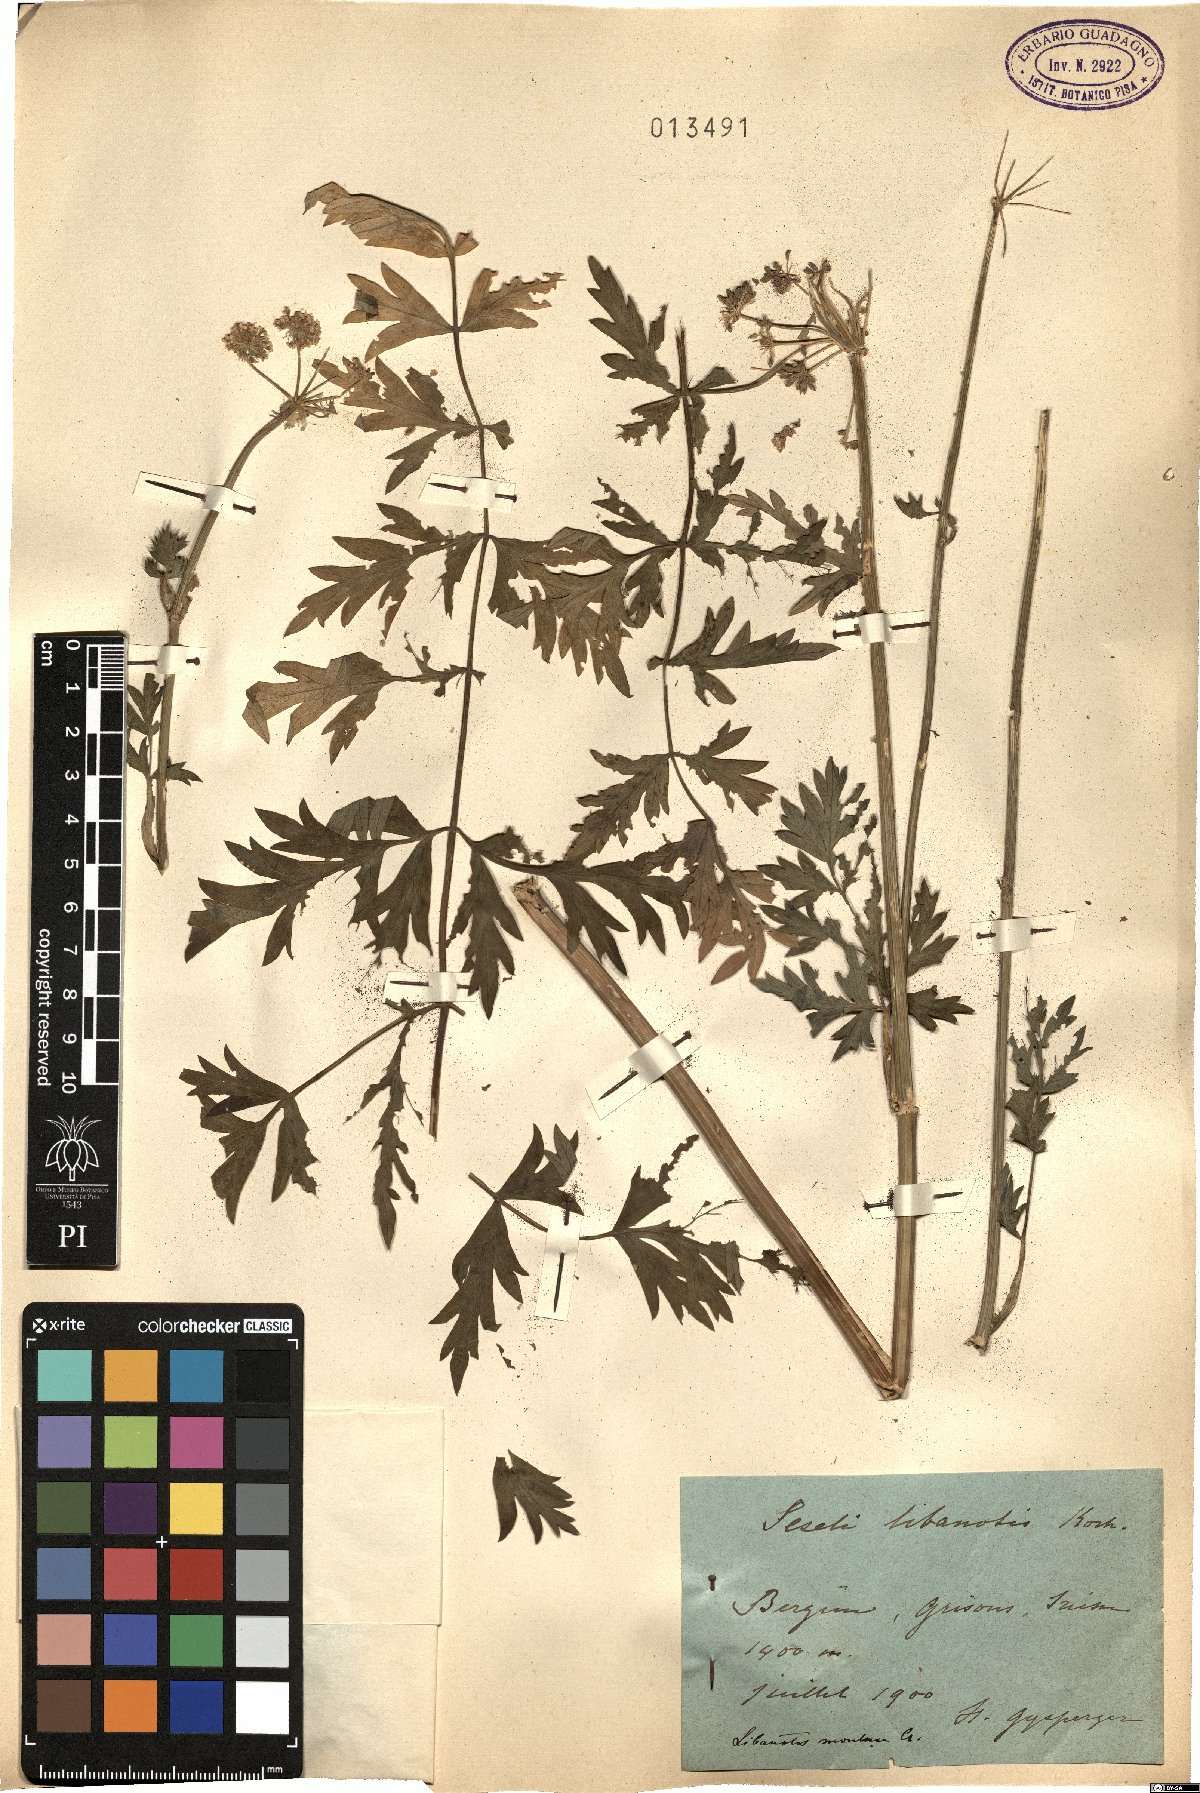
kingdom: Plantae
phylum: Tracheophyta
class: Magnoliopsida
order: Apiales
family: Apiaceae
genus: Seseli
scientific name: Seseli libanotis
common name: Mooncarrot
